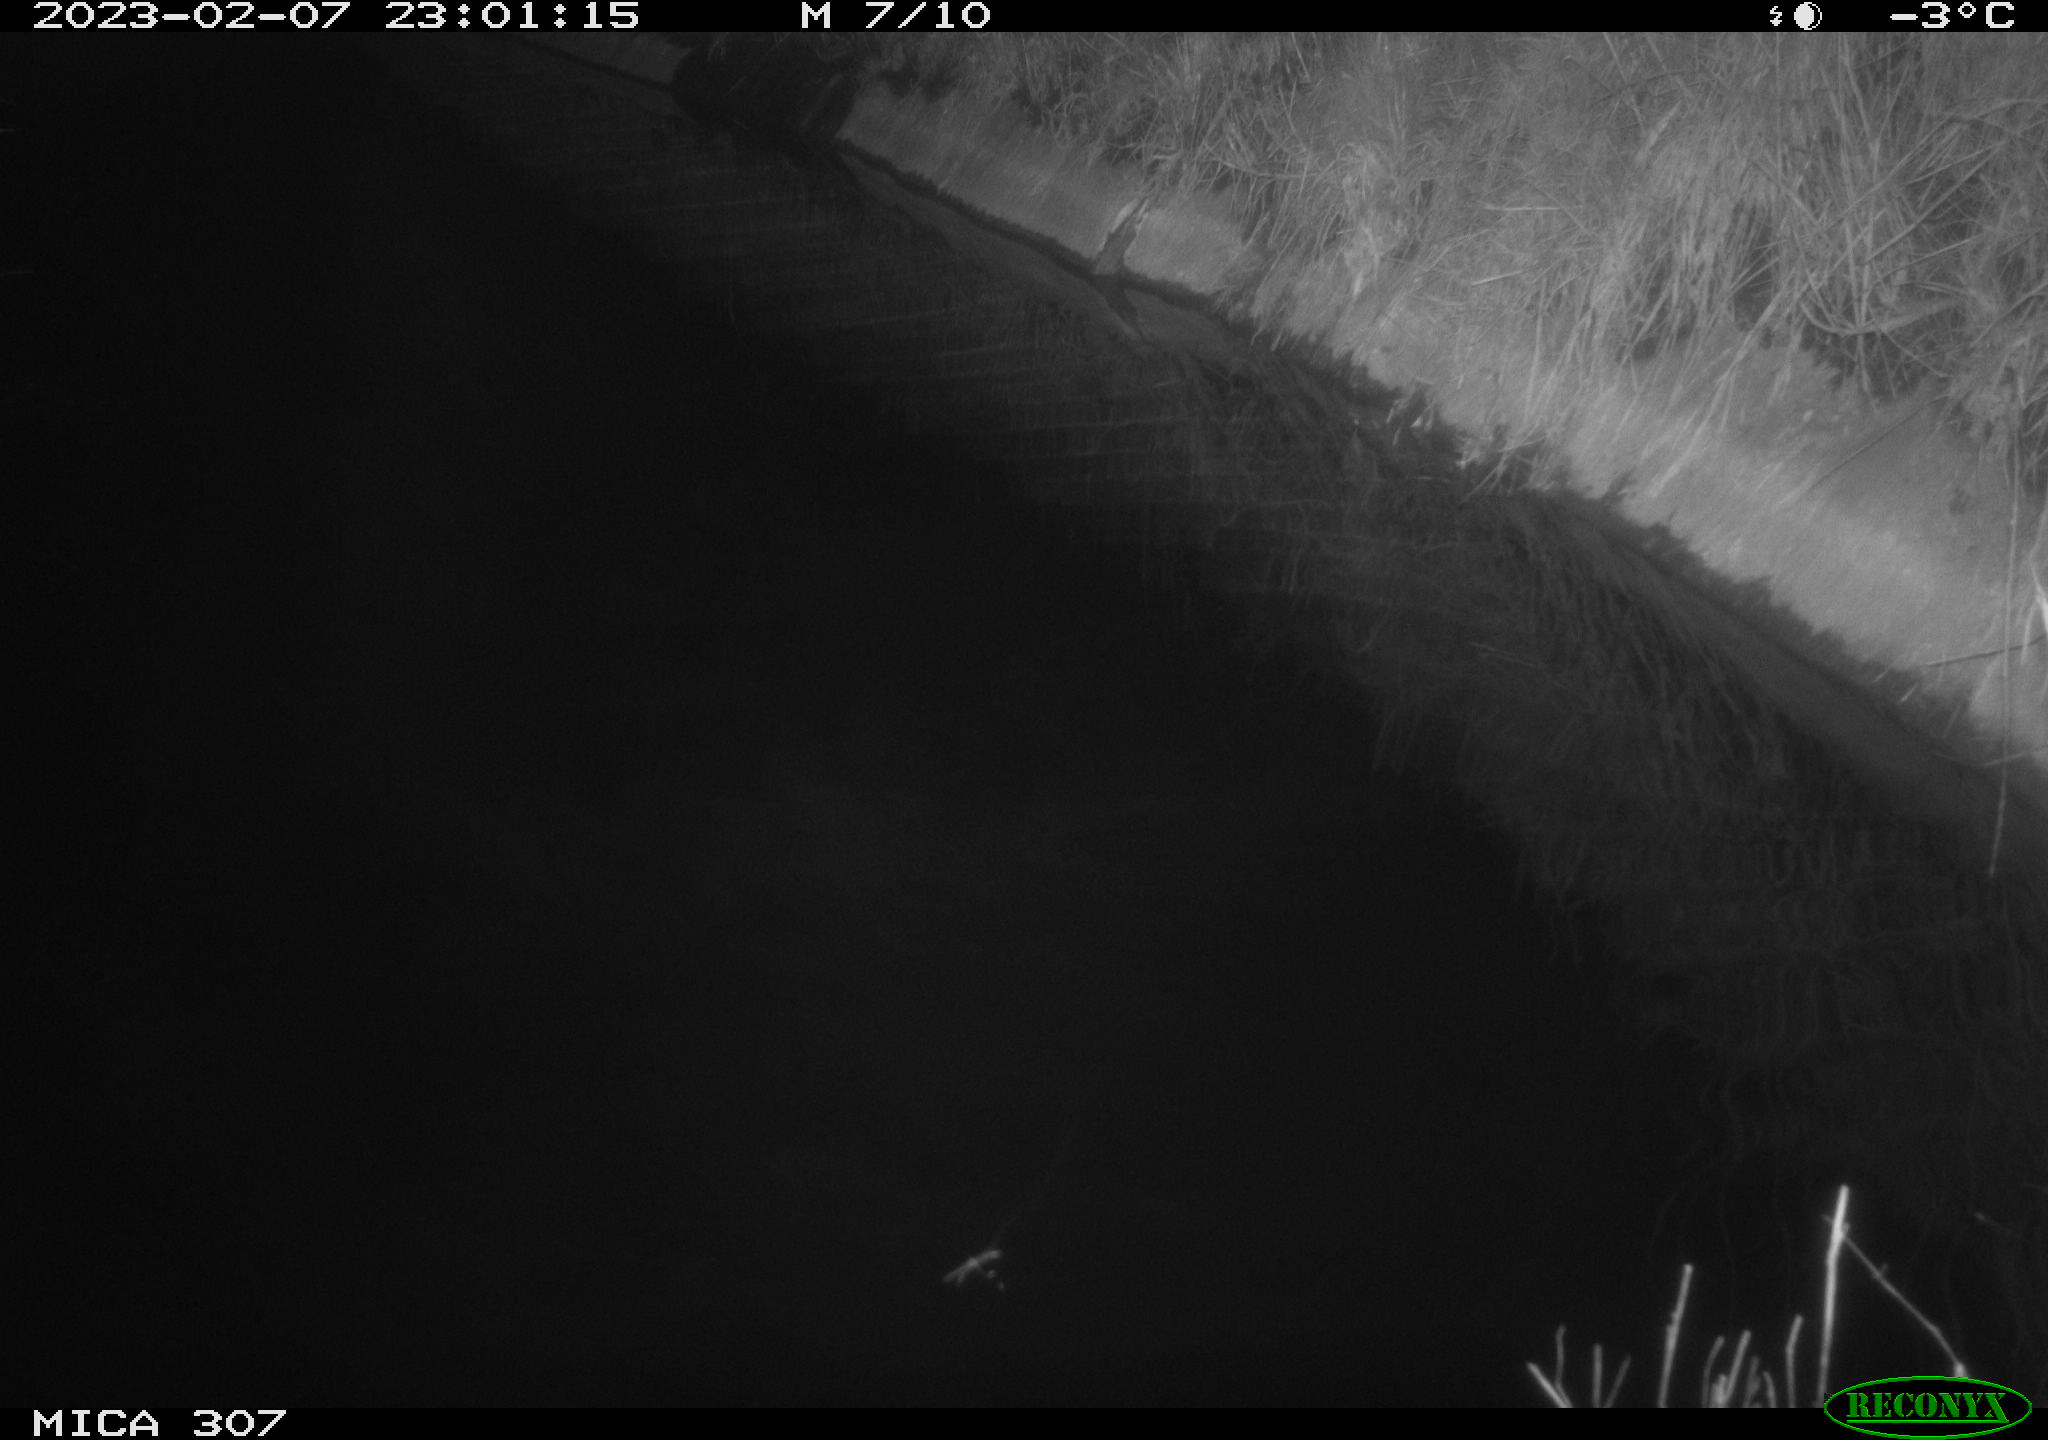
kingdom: Animalia
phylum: Chordata
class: Mammalia
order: Rodentia
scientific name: Rodentia
